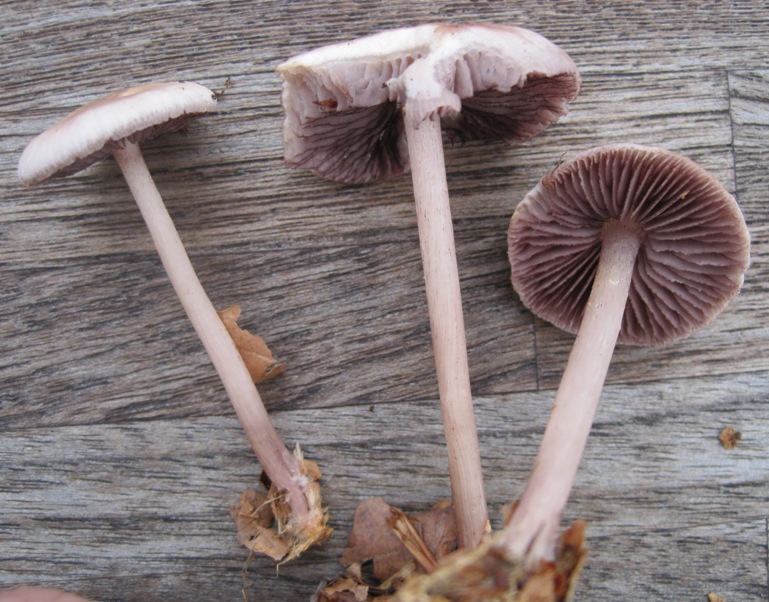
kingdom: Fungi
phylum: Basidiomycota
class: Agaricomycetes
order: Agaricales
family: Mycenaceae
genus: Mycena
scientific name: Mycena pelianthina
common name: mørkbladet huesvamp
